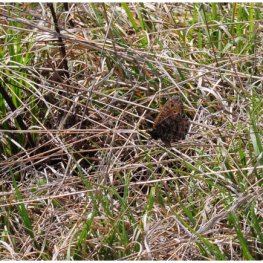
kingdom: Animalia
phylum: Arthropoda
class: Insecta
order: Lepidoptera
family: Nymphalidae
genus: Oeneis
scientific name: Oeneis chryxus
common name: Chryxus Arctic
